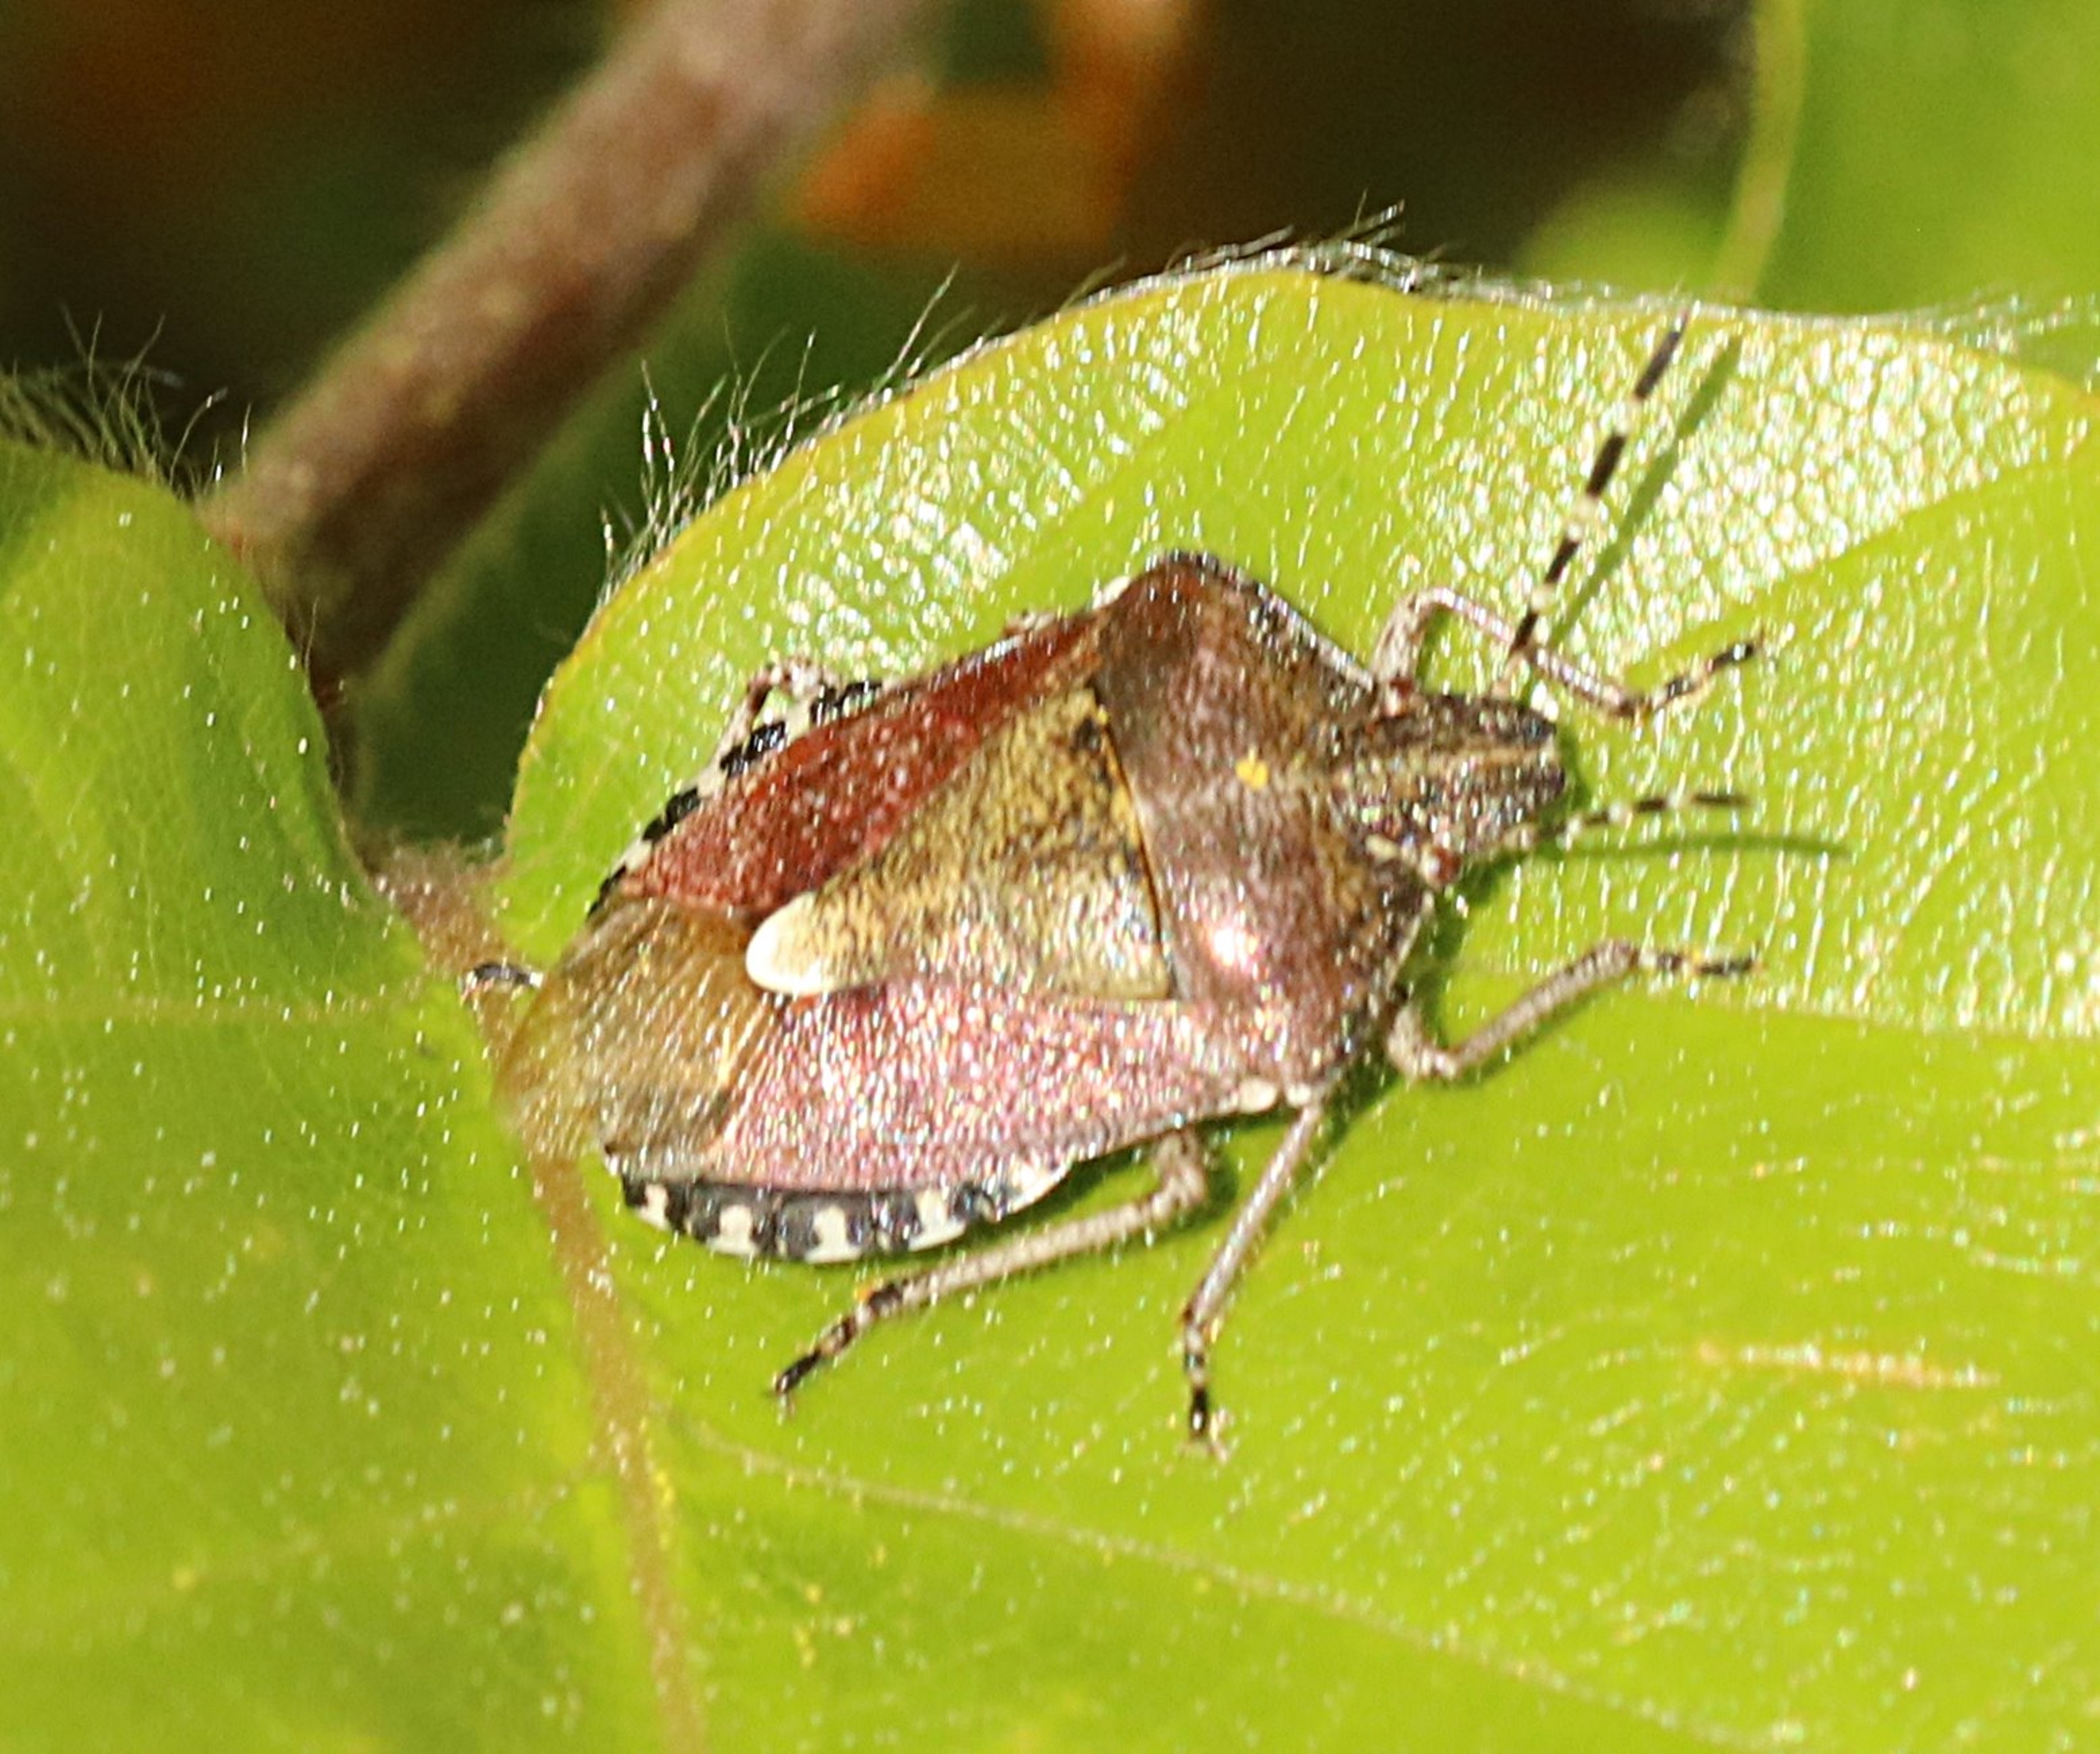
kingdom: Animalia
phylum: Arthropoda
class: Insecta
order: Hemiptera
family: Pentatomidae
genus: Dolycoris
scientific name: Dolycoris baccarum
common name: Almindelig bærtæge
